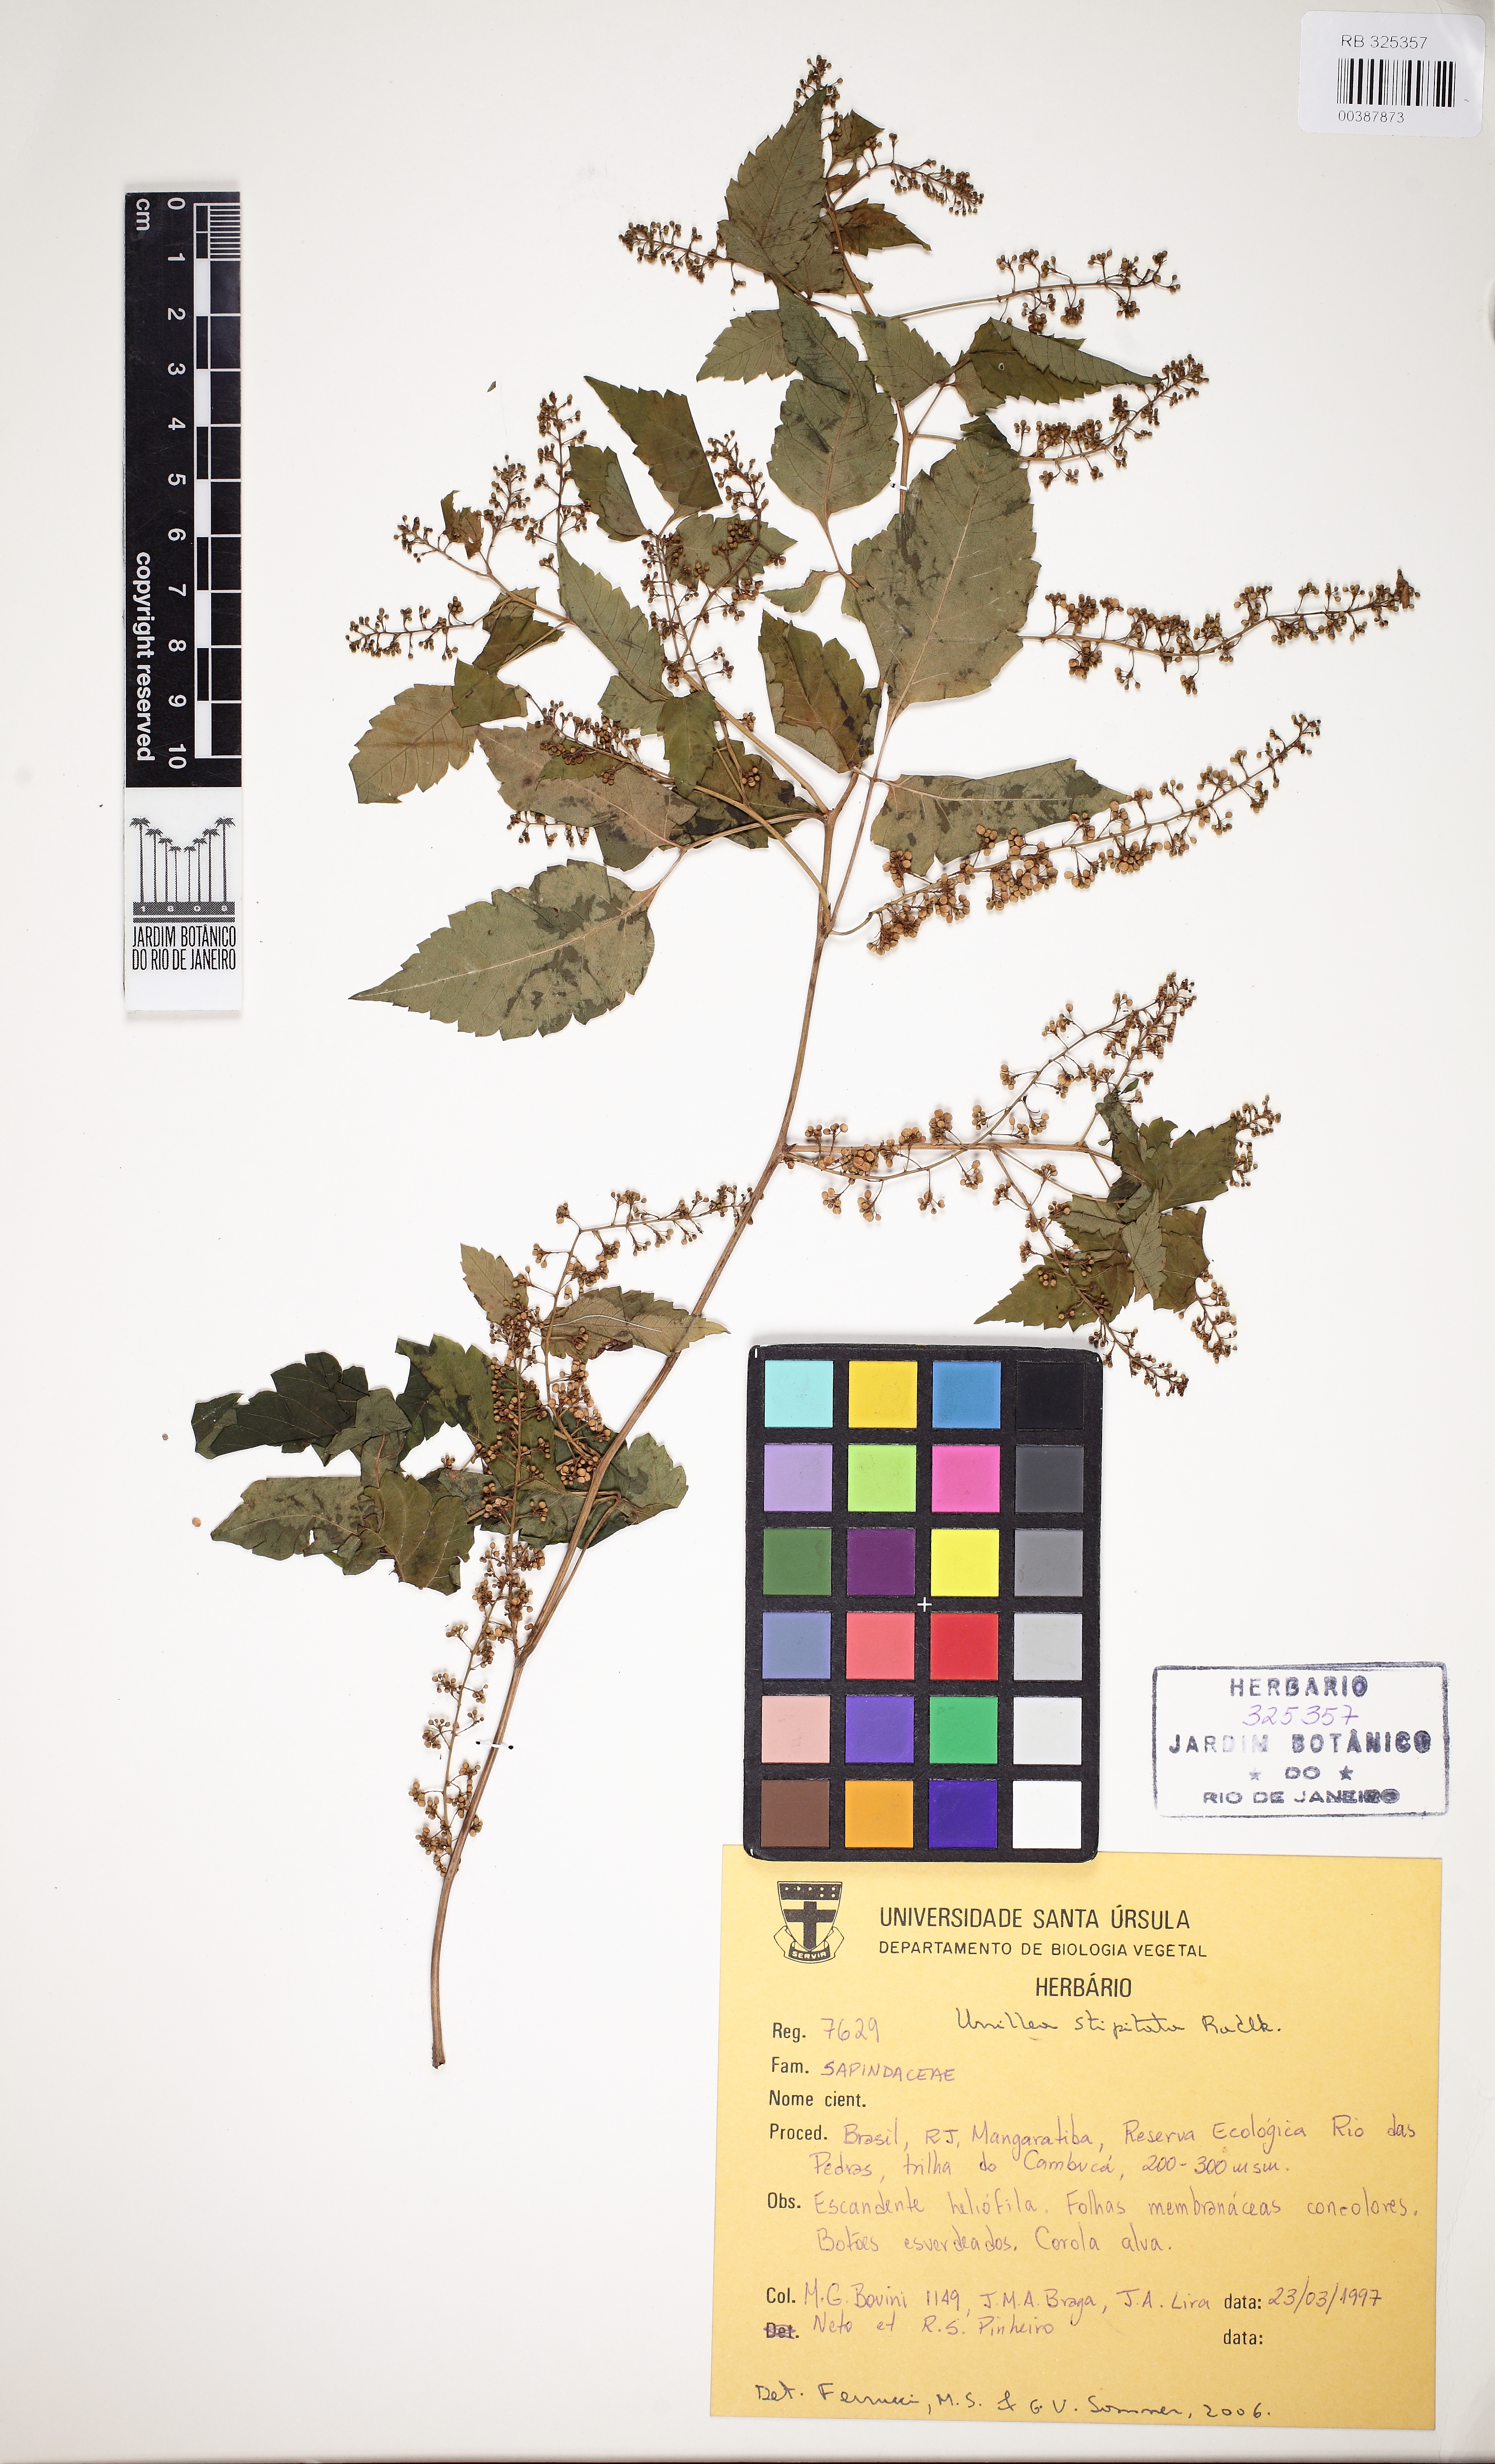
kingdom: Plantae
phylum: Tracheophyta
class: Magnoliopsida
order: Sapindales
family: Sapindaceae
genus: Urvillea
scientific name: Urvillea stipitata
